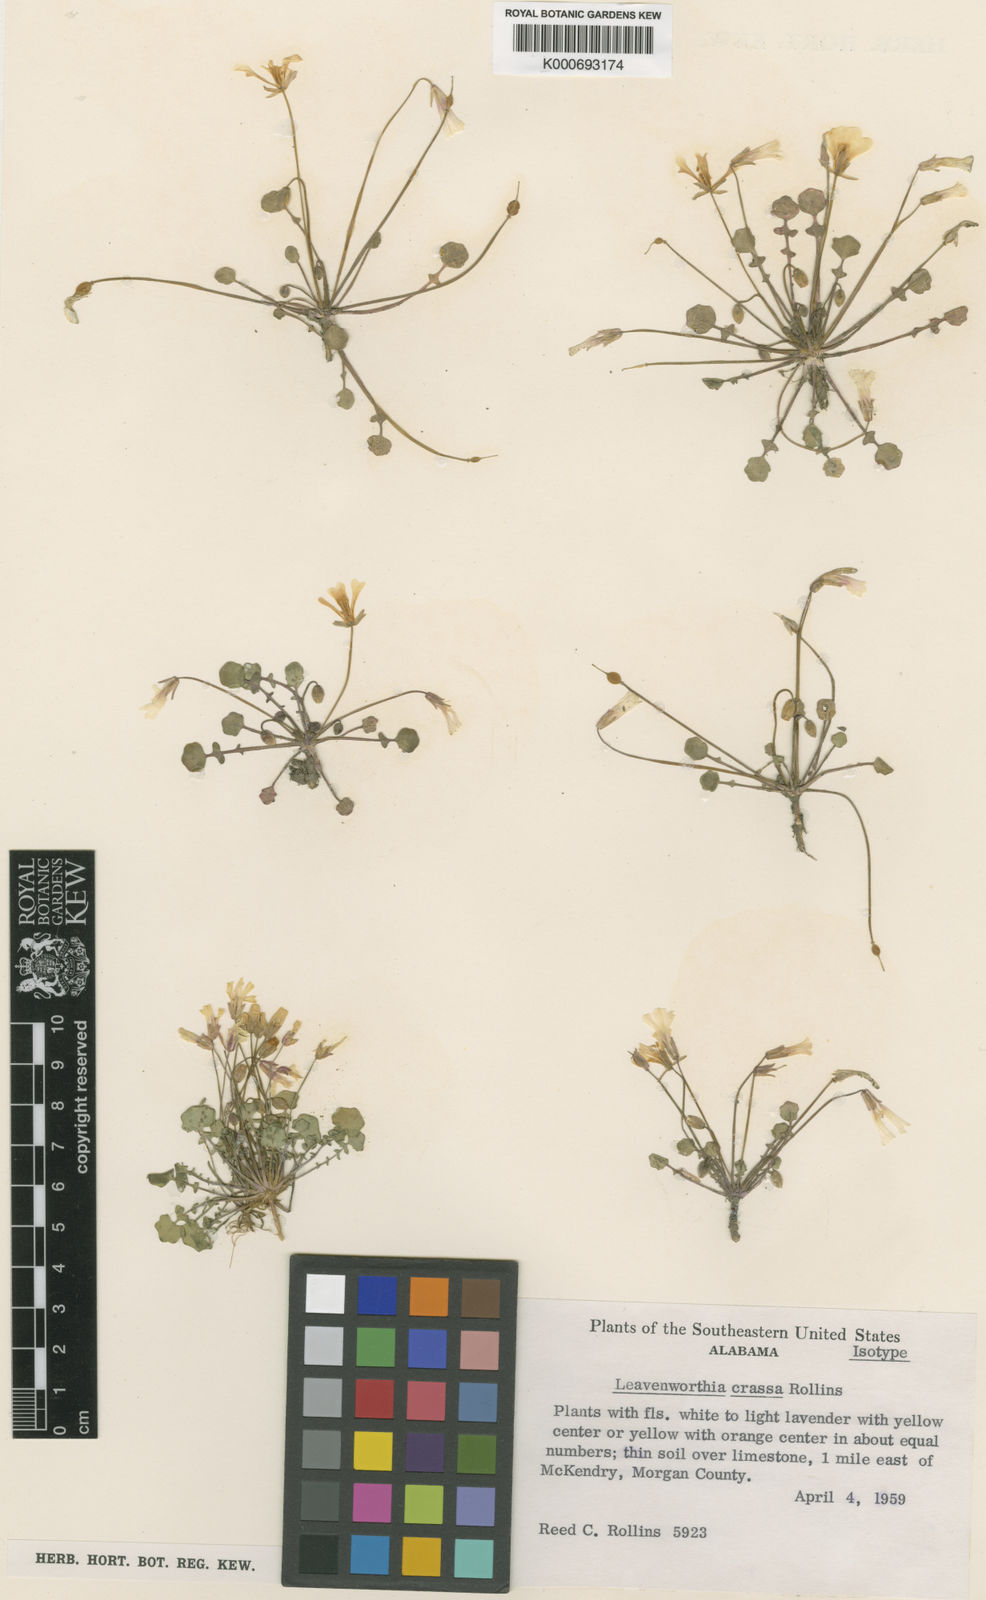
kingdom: Plantae
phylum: Tracheophyta
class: Magnoliopsida
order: Brassicales
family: Brassicaceae
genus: Leavenworthia
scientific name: Leavenworthia crassa
